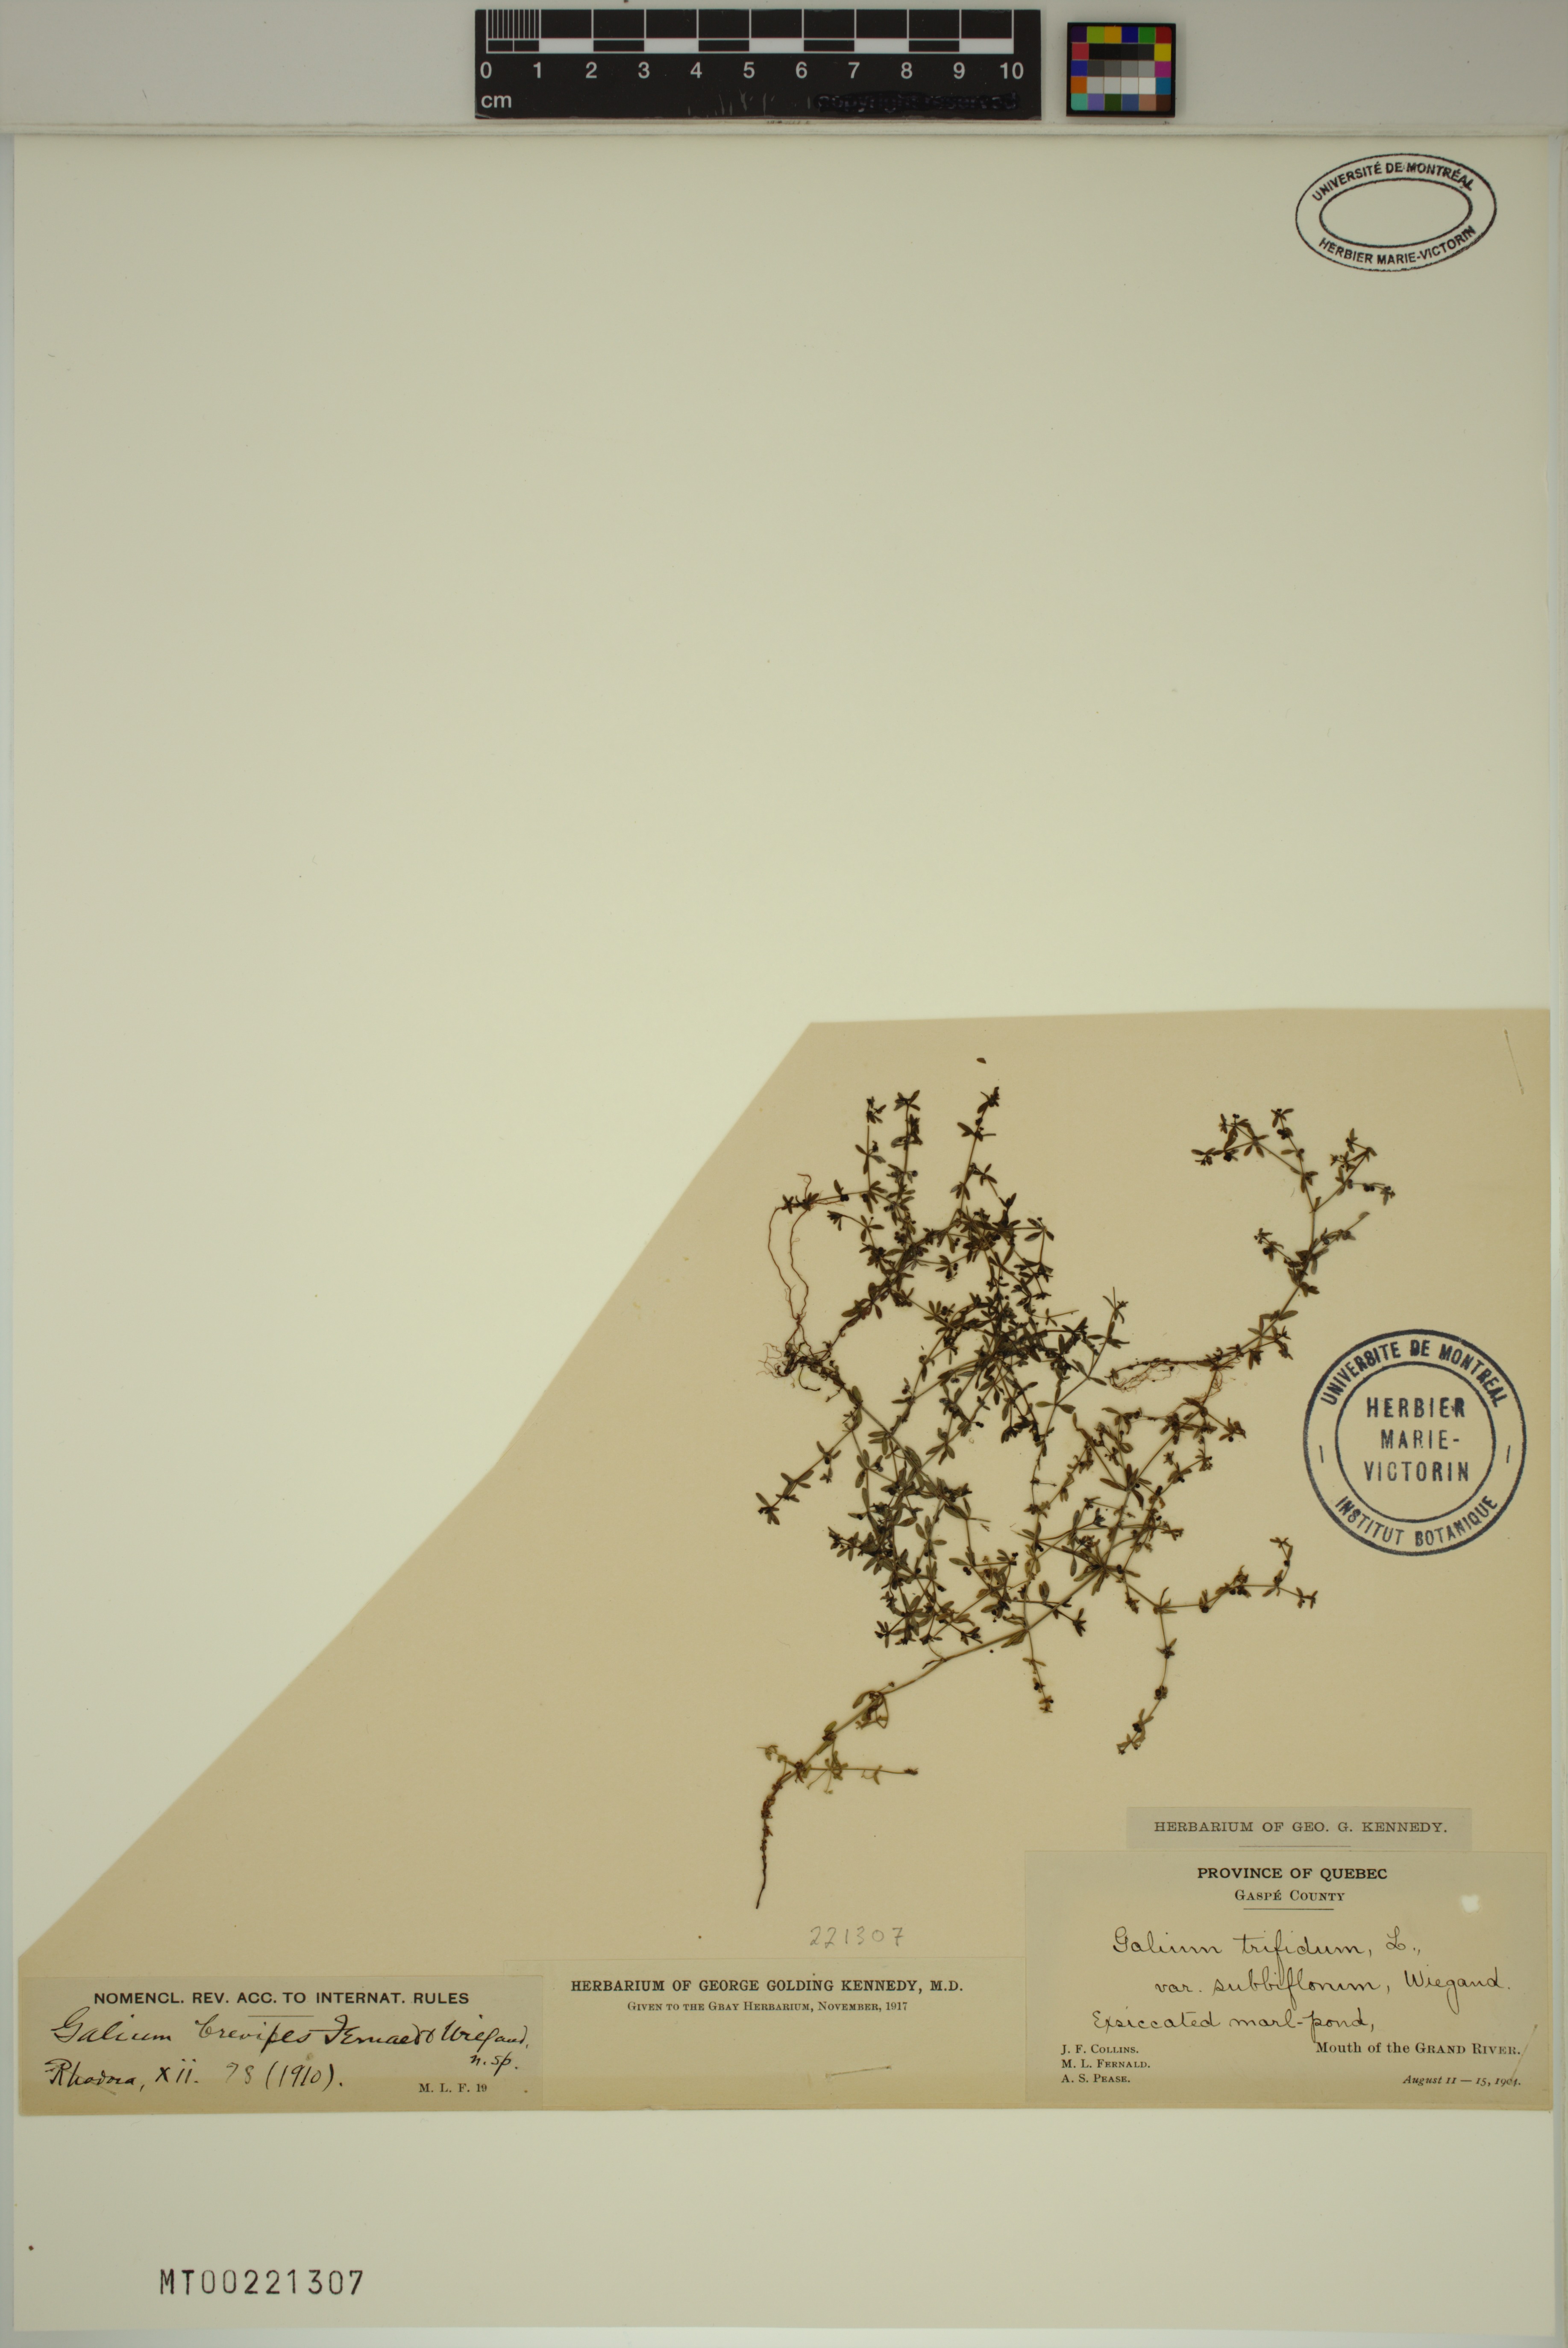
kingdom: Plantae
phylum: Tracheophyta
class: Magnoliopsida
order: Gentianales
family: Rubiaceae
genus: Galium
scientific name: Galium trifidum
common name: Small bedstraw
